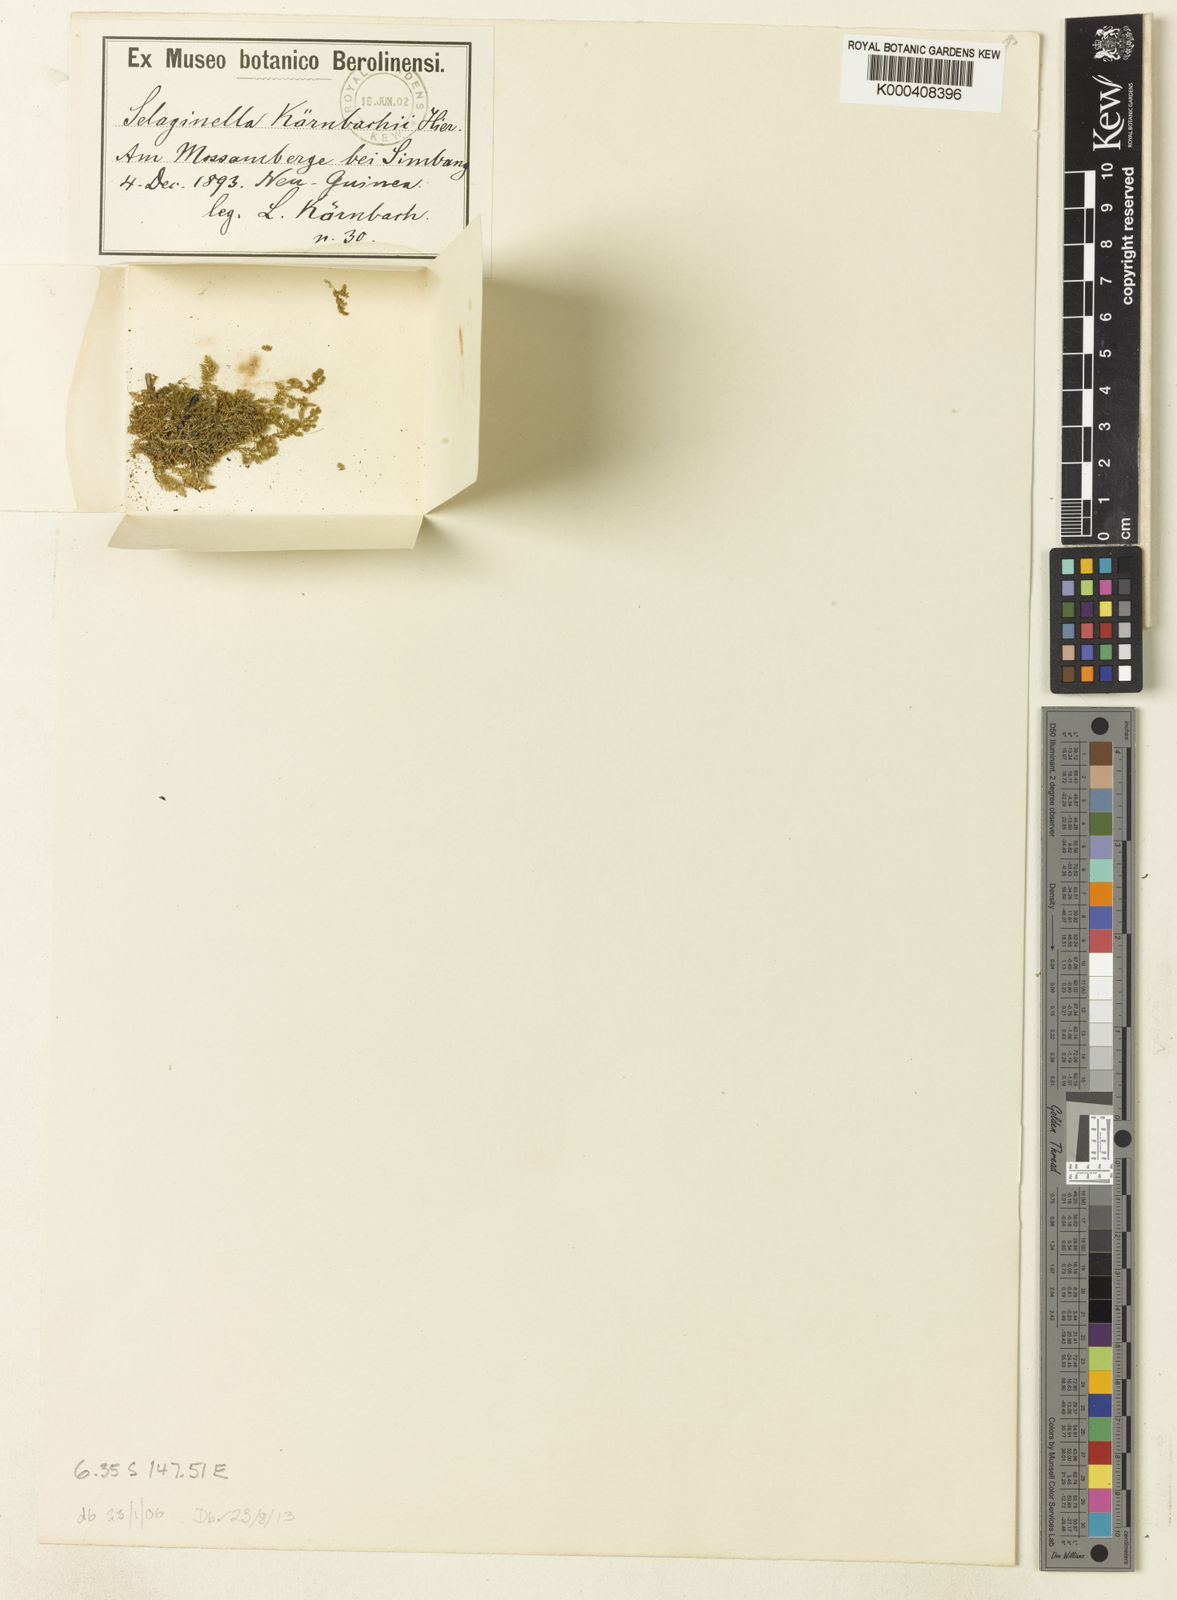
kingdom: Plantae
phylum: Tracheophyta
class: Lycopodiopsida
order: Selaginellales
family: Selaginellaceae
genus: Selaginella
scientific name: Selaginella
